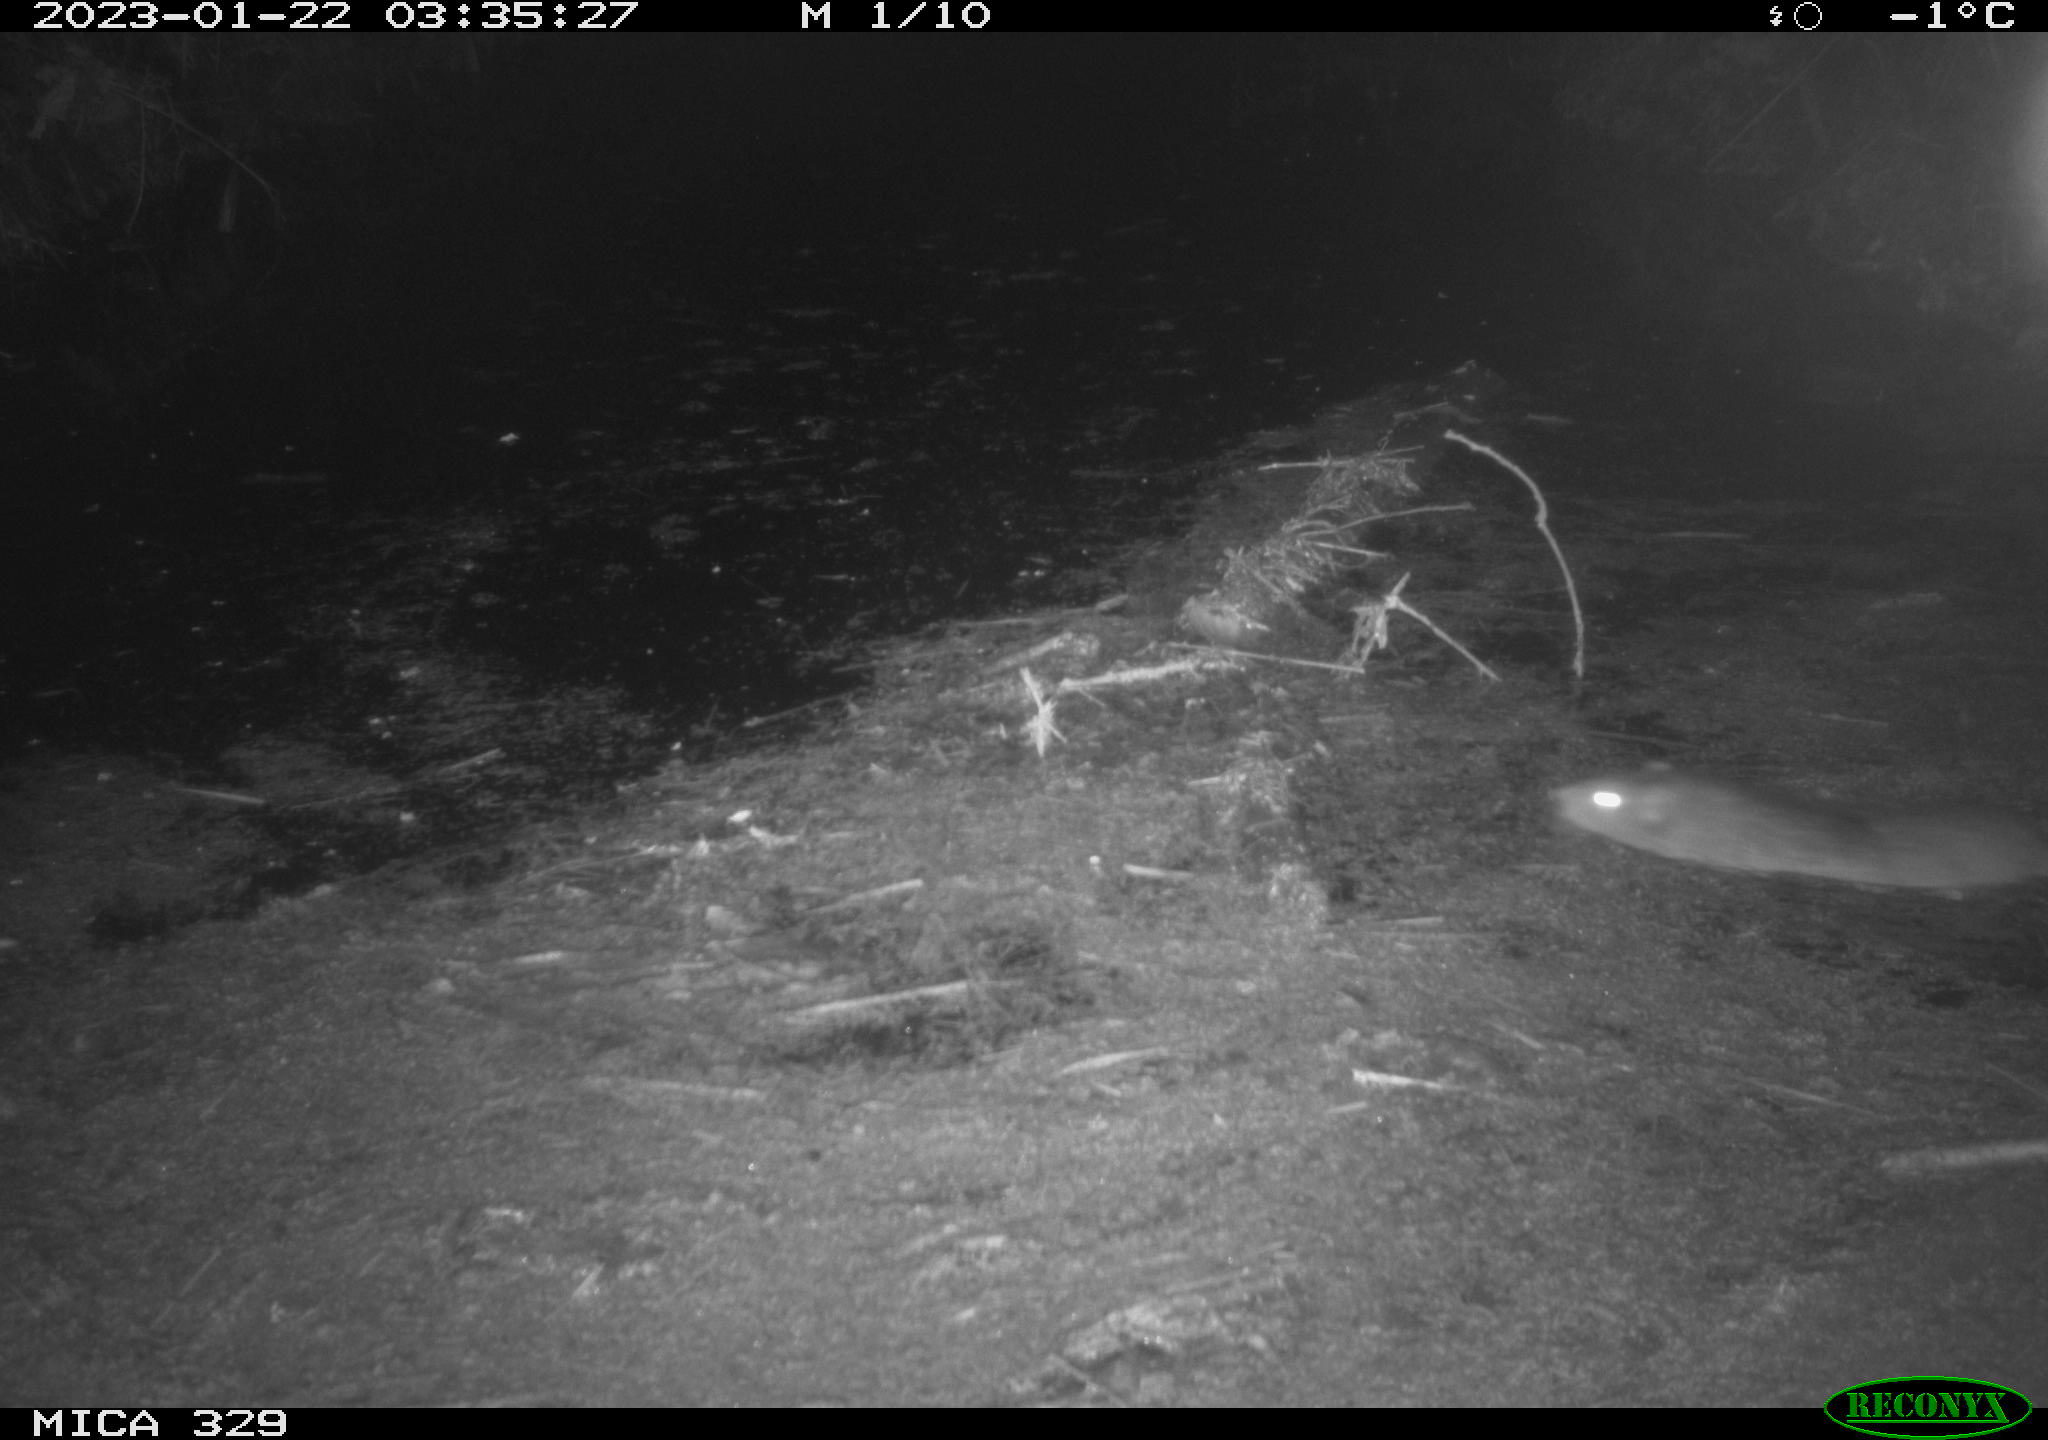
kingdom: Animalia
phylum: Chordata
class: Mammalia
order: Rodentia
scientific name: Rodentia
